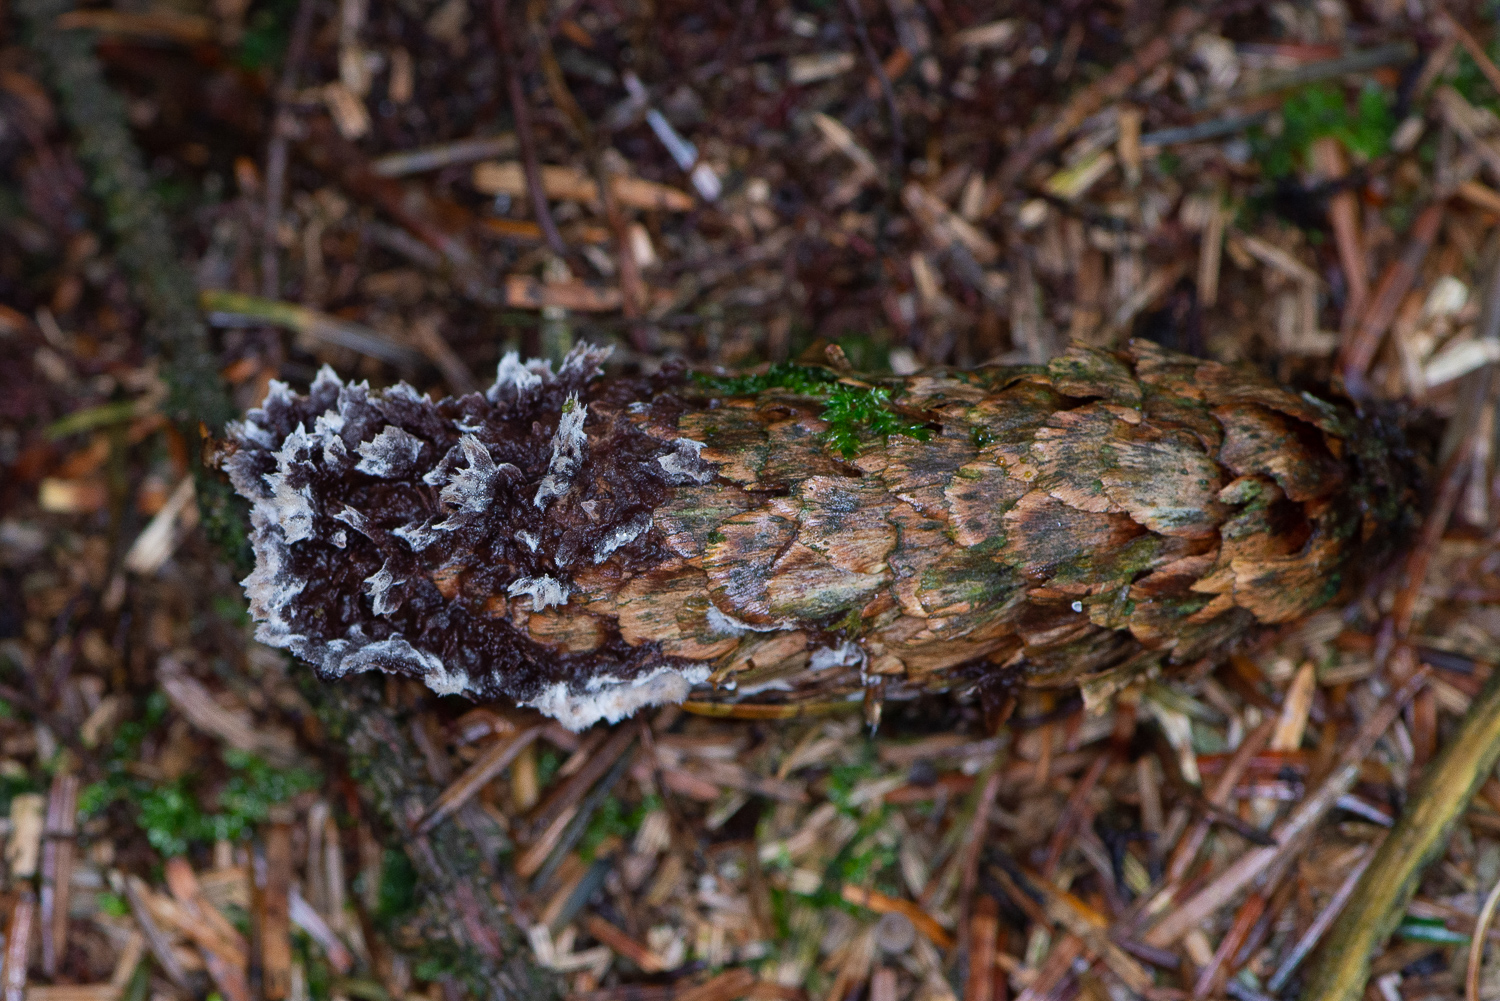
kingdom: Fungi
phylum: Basidiomycota
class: Agaricomycetes
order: Thelephorales
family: Thelephoraceae
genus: Thelephora
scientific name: Thelephora terrestris
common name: fliget frynsesvamp
